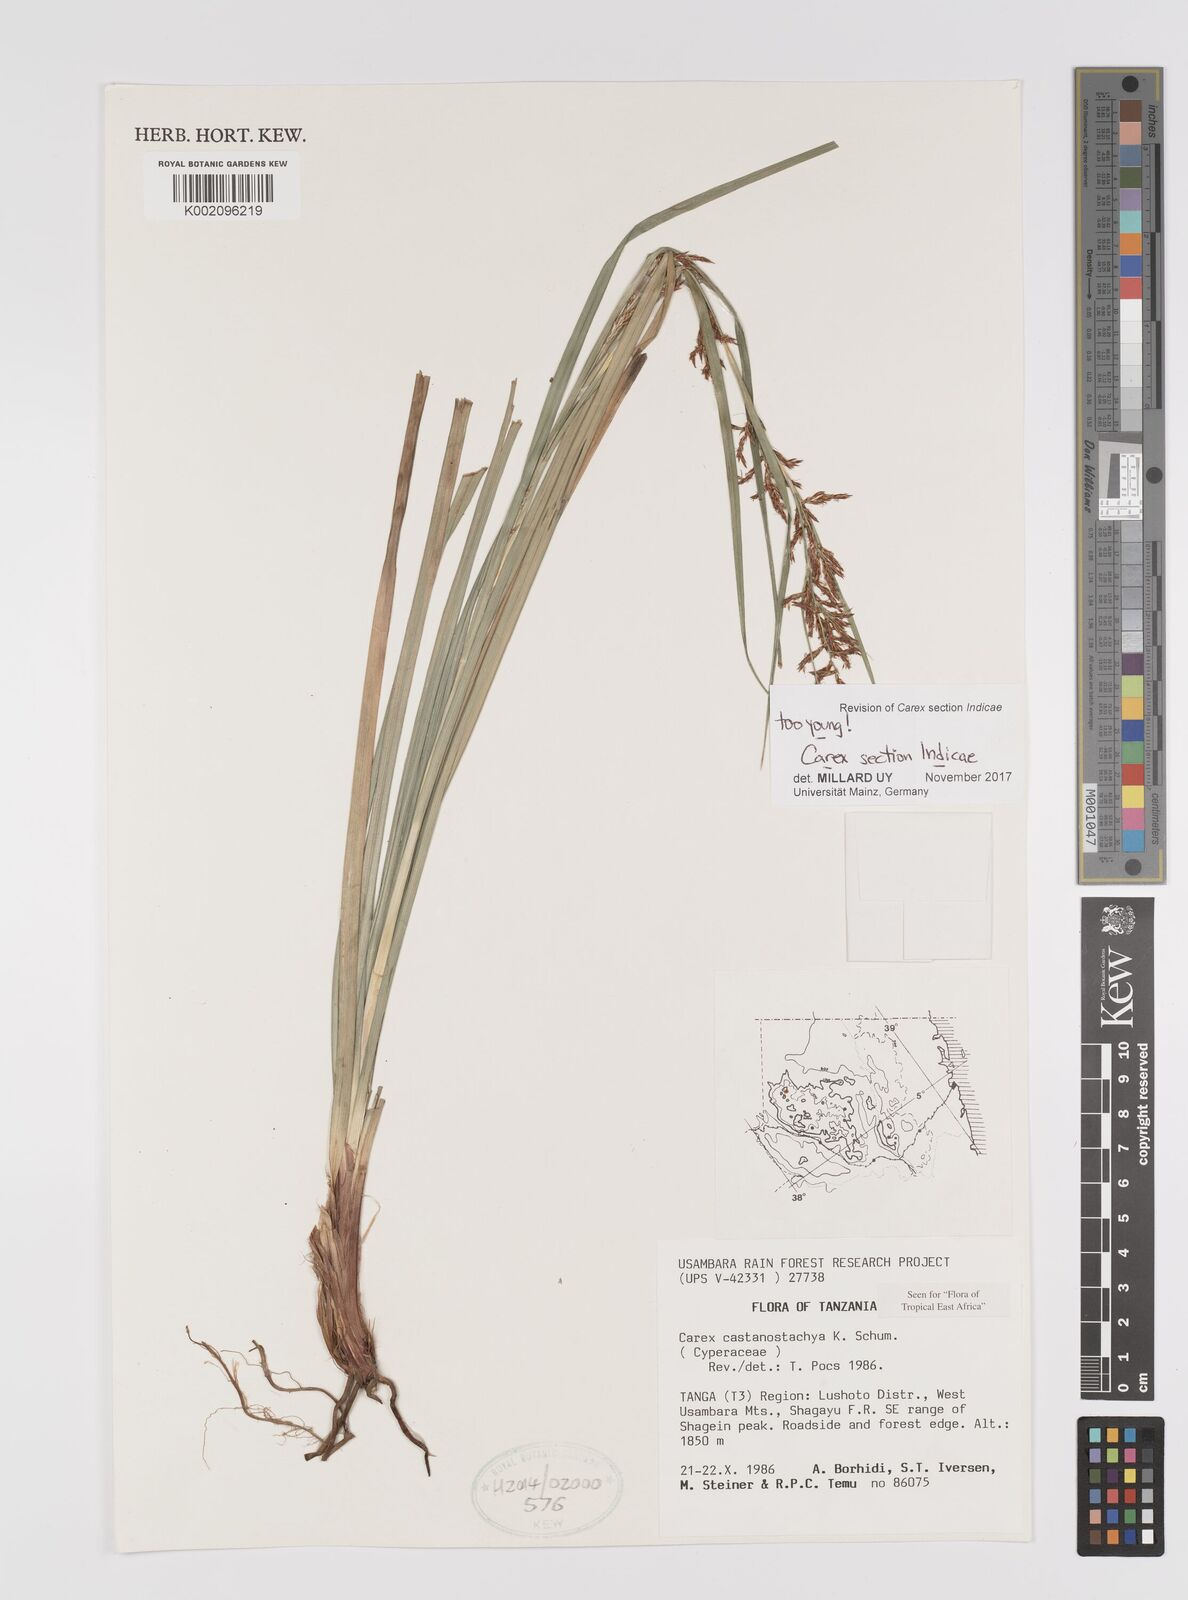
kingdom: Plantae
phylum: Tracheophyta
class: Liliopsida
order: Poales
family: Cyperaceae
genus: Carex
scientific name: Carex
